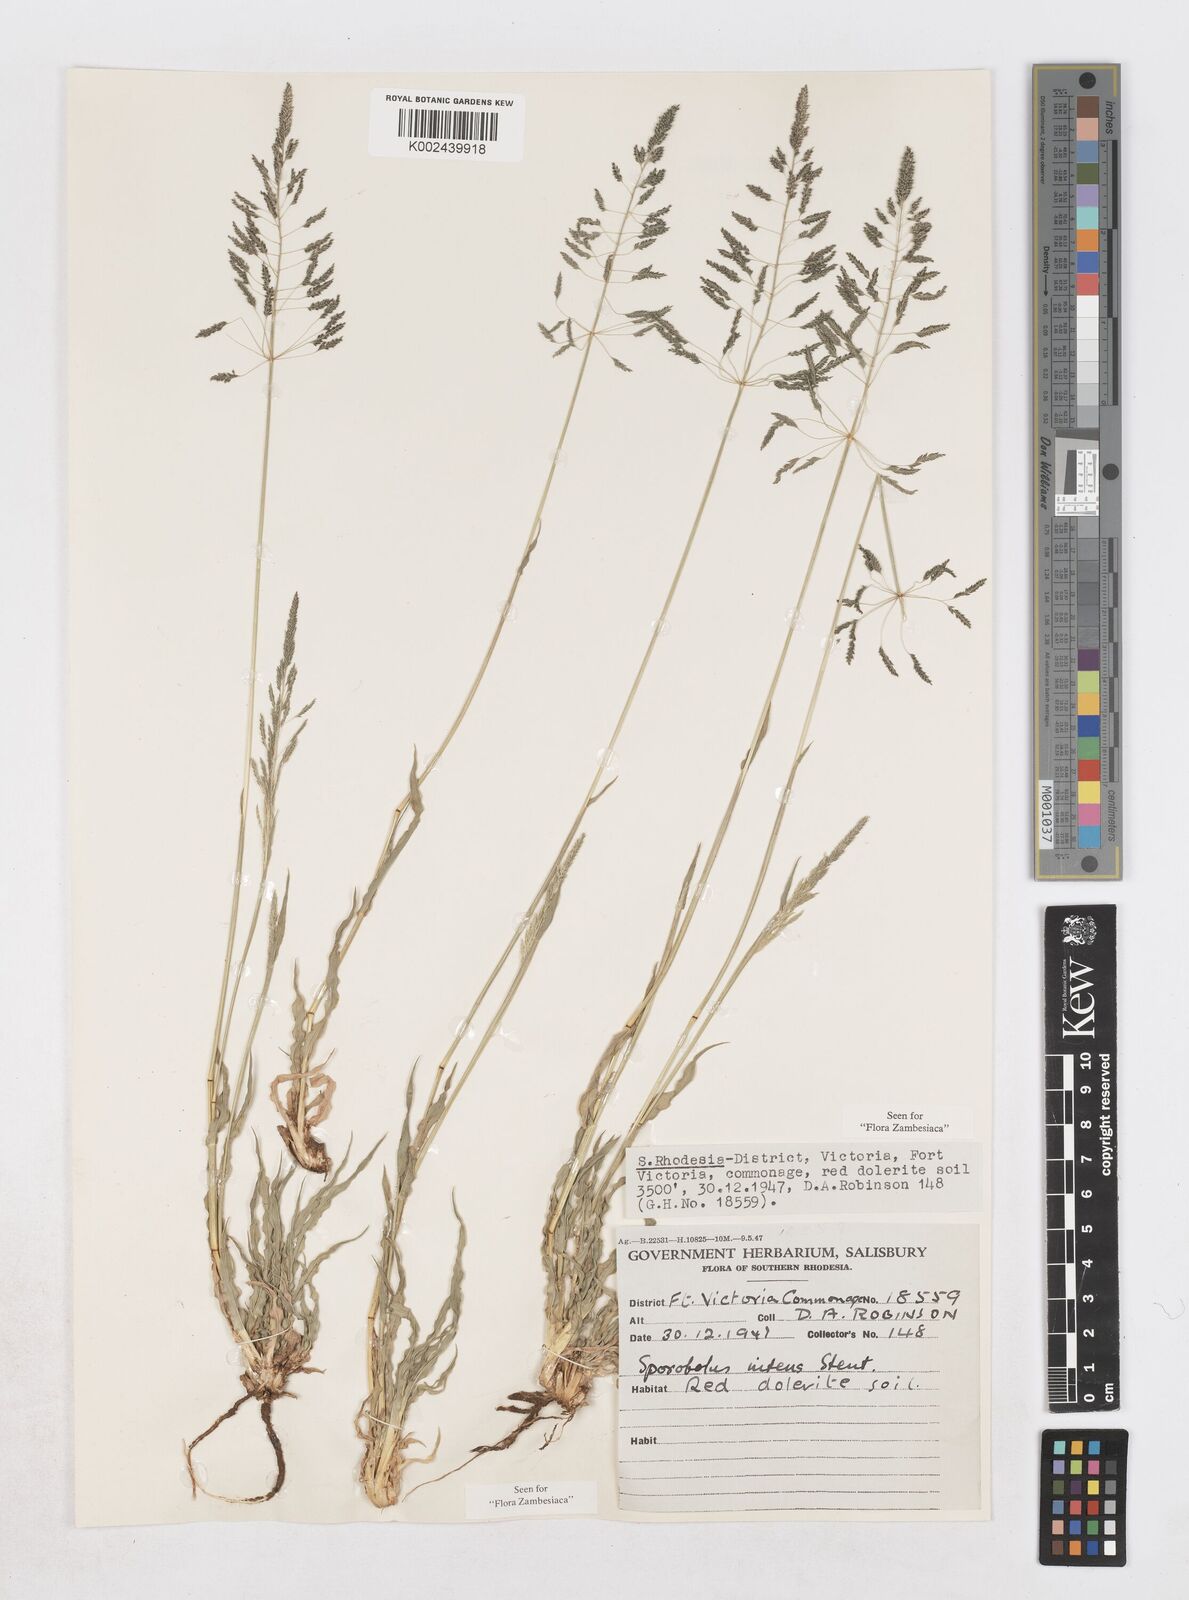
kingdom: Plantae
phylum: Tracheophyta
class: Liliopsida
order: Poales
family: Poaceae
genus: Sporobolus
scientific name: Sporobolus nitens
